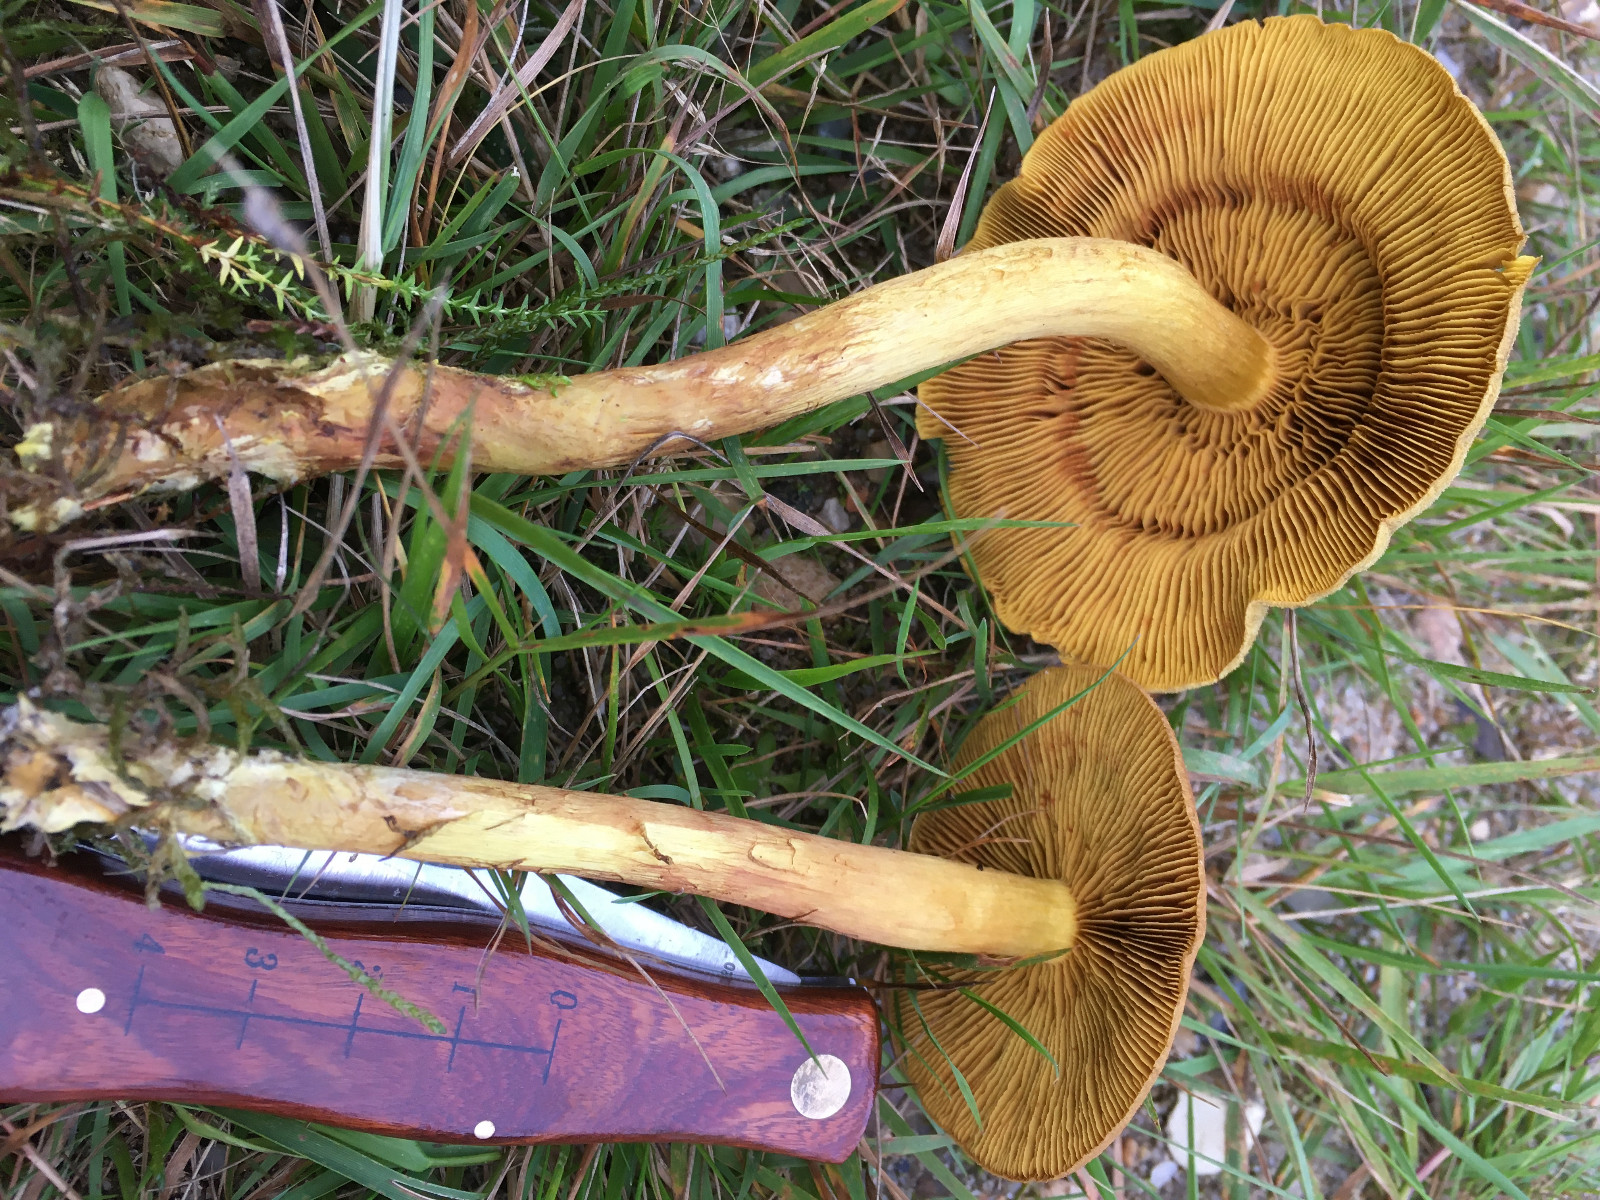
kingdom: Fungi
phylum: Basidiomycota
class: Agaricomycetes
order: Agaricales
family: Cortinariaceae
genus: Cortinarius
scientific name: Cortinarius
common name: gulbladet slørhat
